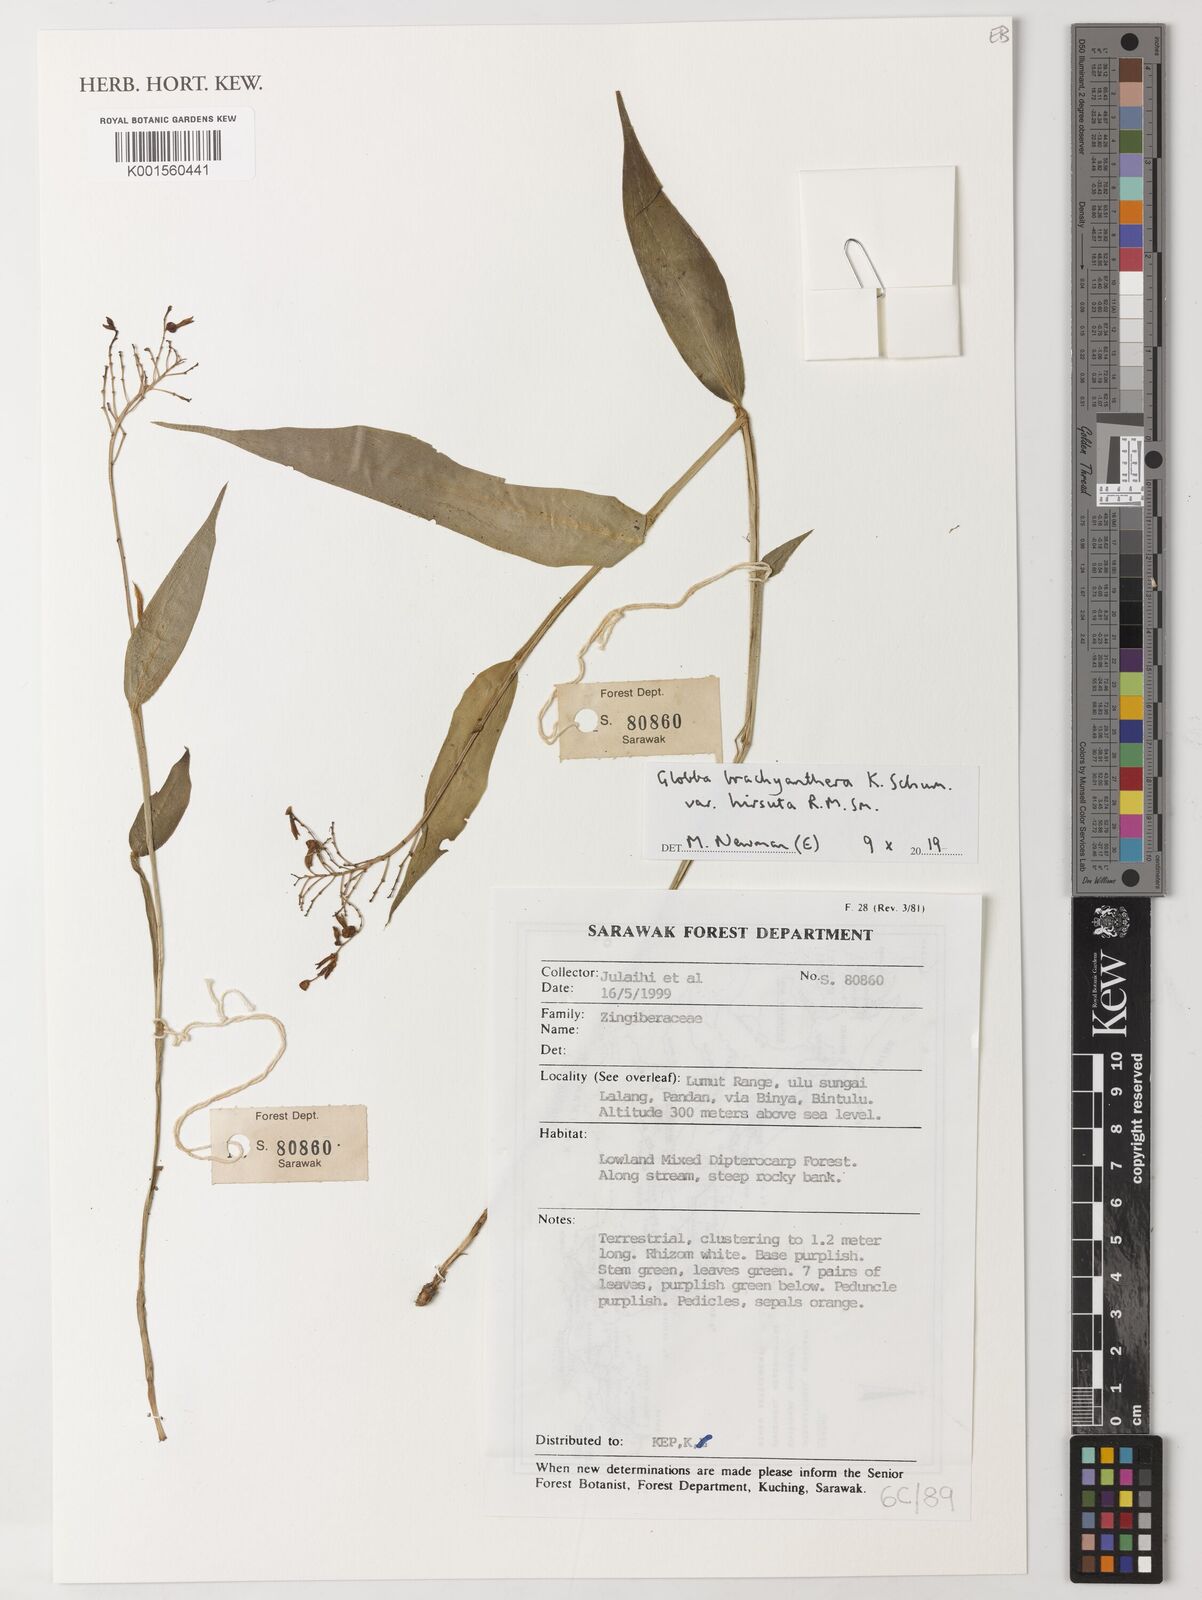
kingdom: Plantae
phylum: Tracheophyta
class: Liliopsida
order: Zingiberales
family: Zingiberaceae
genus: Globba
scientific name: Globba brachyanthera
